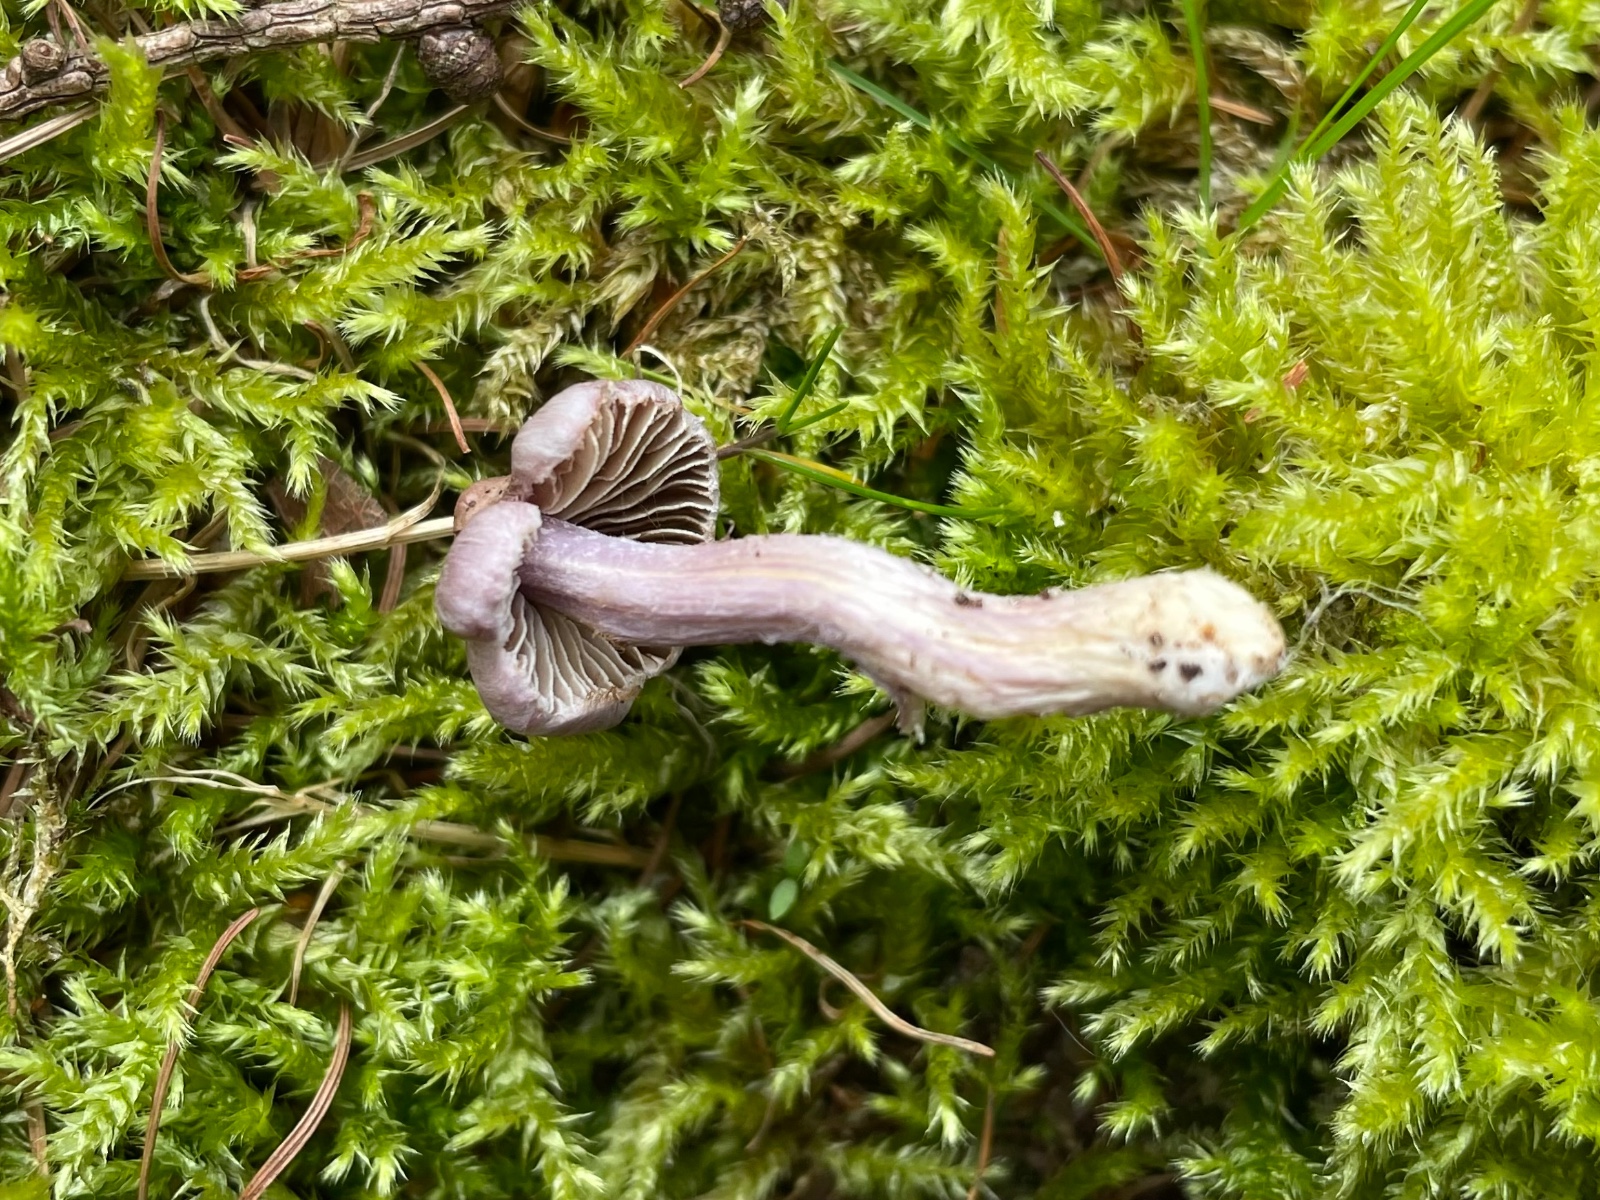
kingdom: Fungi
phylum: Basidiomycota
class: Agaricomycetes
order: Agaricales
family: Inocybaceae
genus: Inocybe
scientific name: Inocybe
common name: trævlhat
